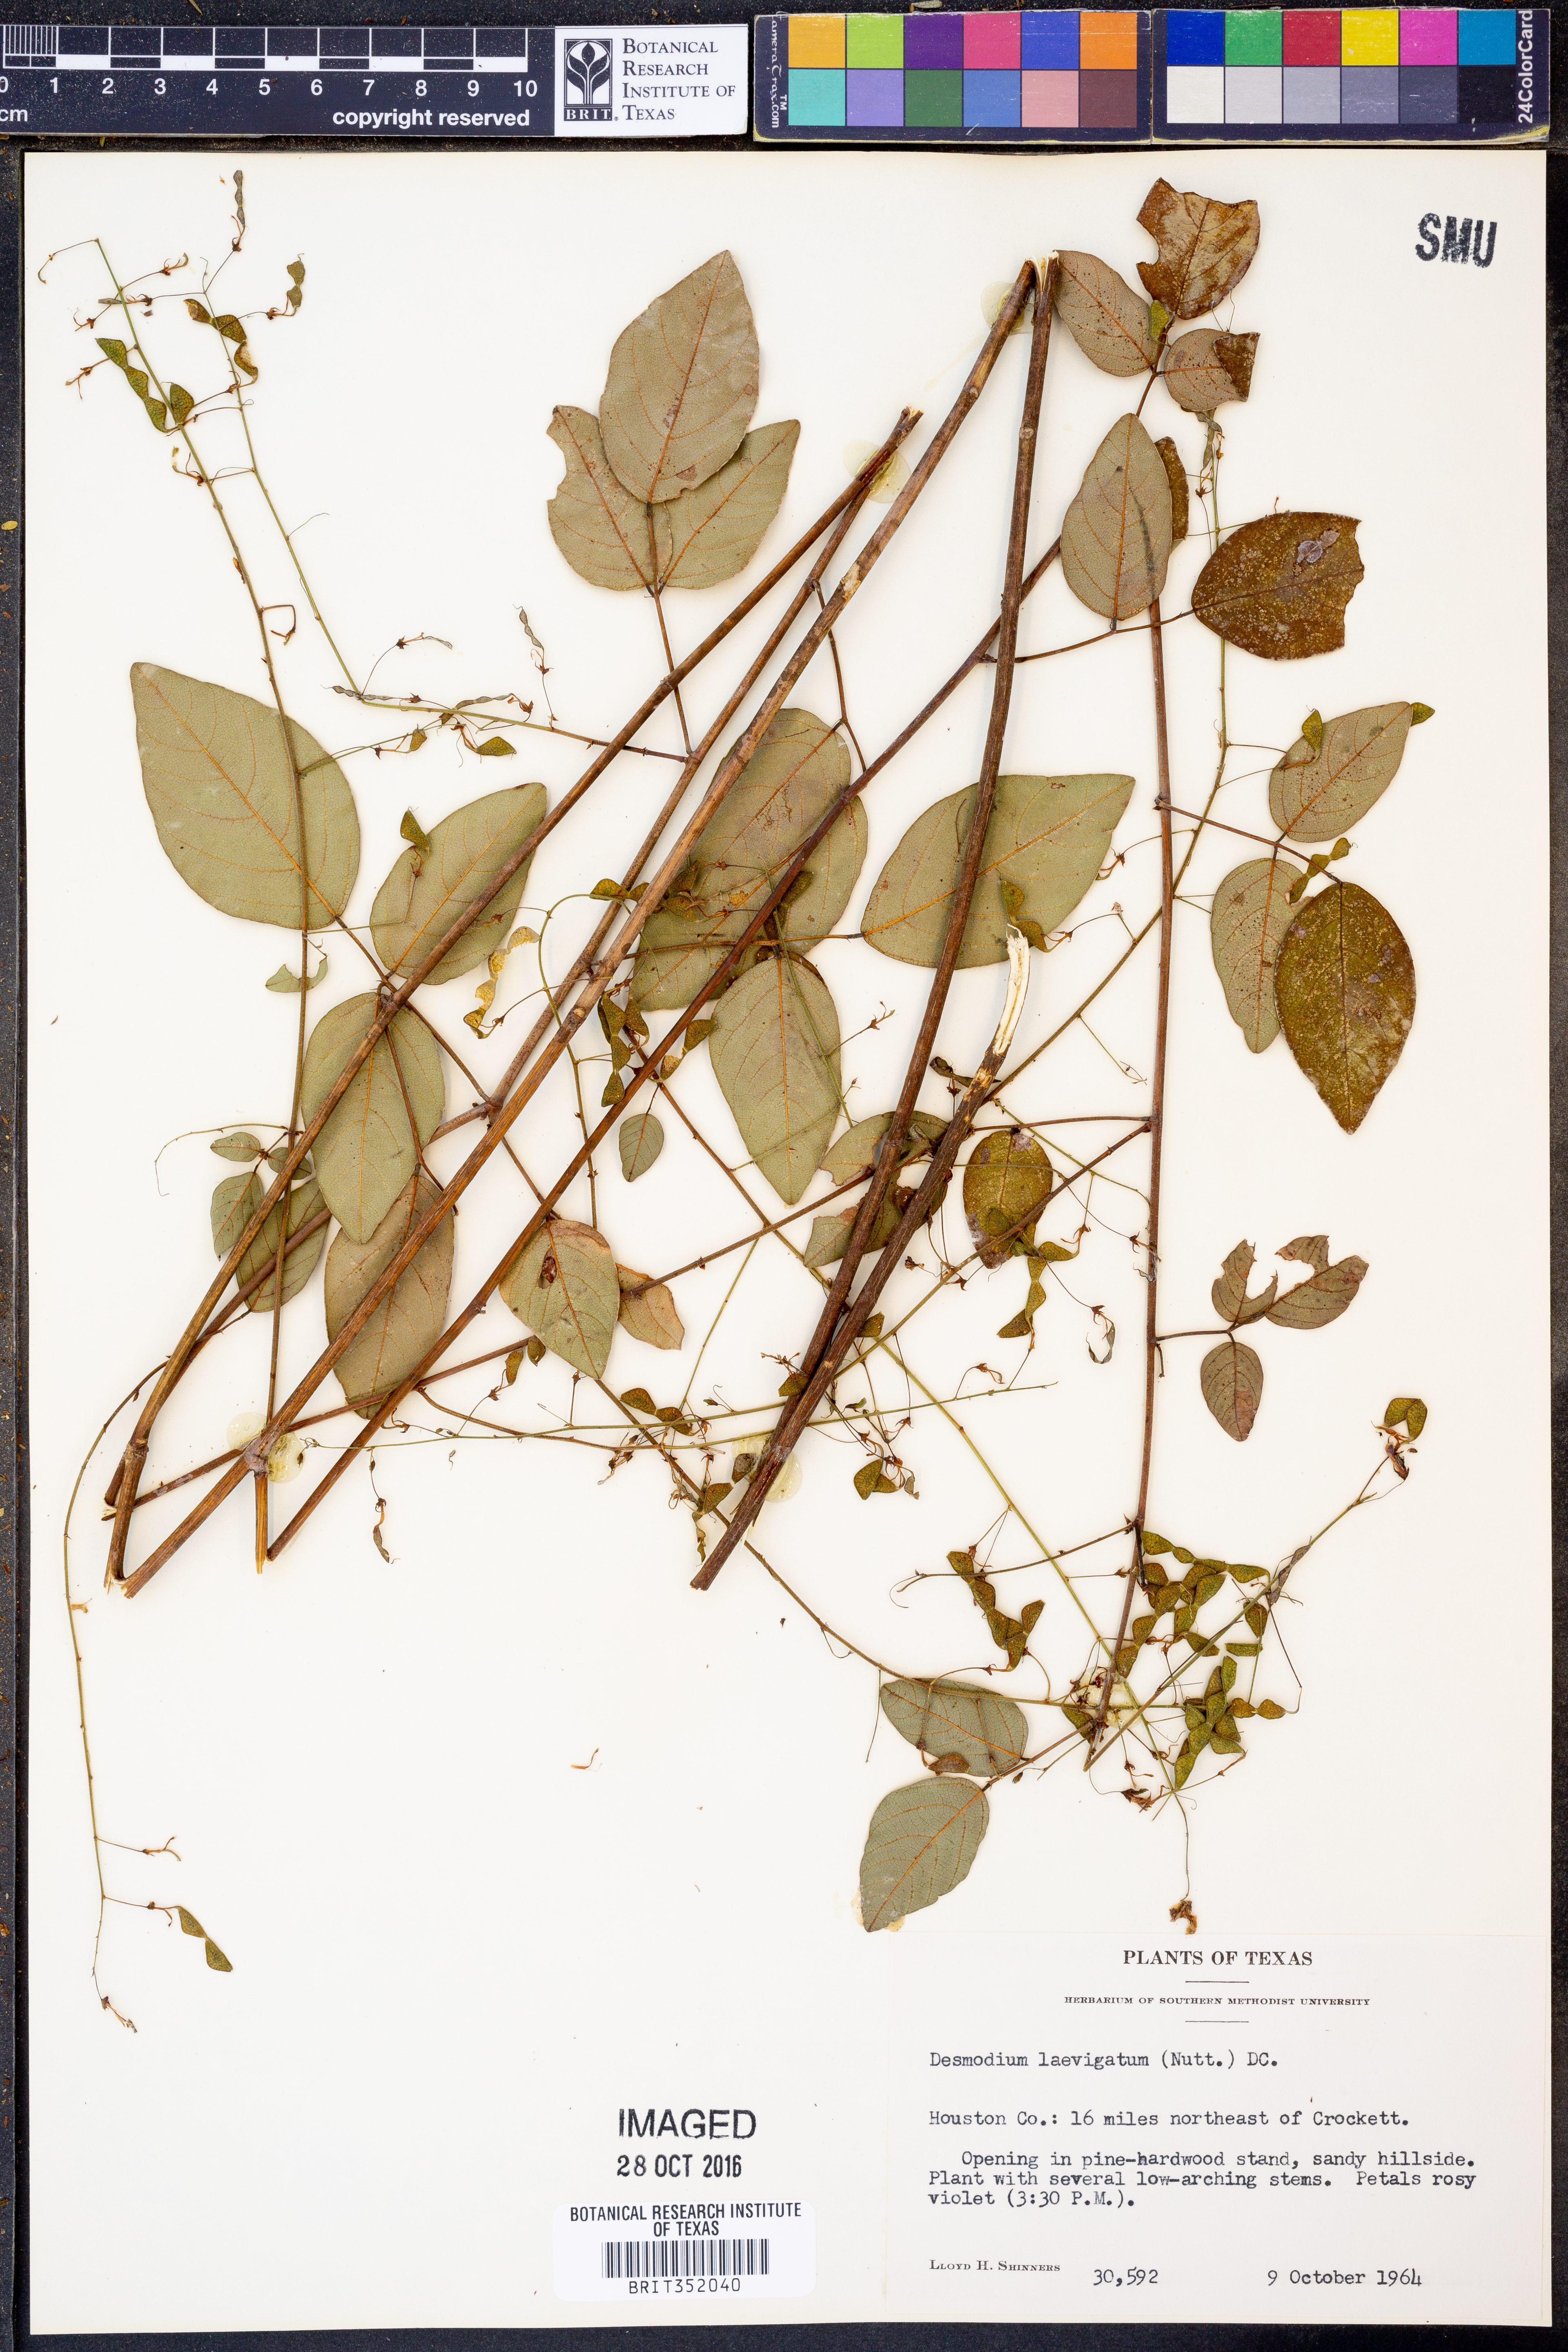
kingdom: Plantae
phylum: Tracheophyta
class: Magnoliopsida
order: Fabales
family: Fabaceae
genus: Desmodium
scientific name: Desmodium laevigatum
